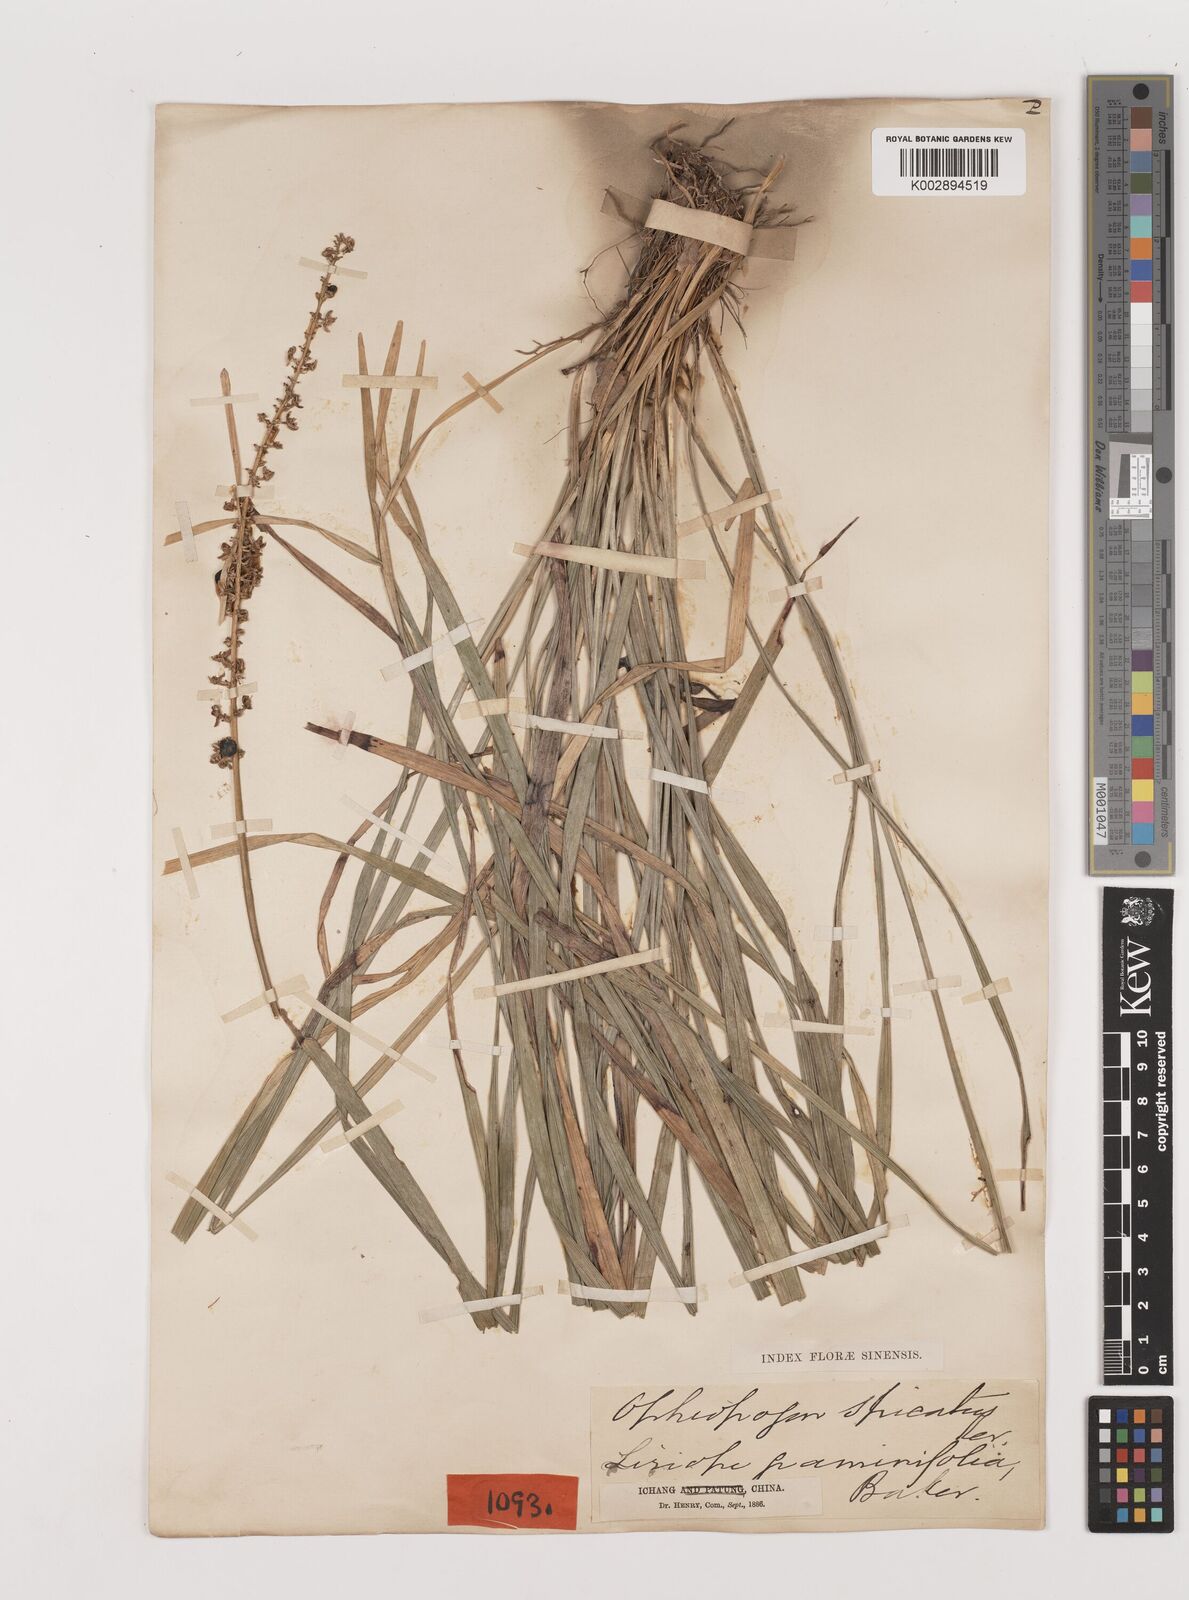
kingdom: Plantae
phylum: Tracheophyta
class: Liliopsida
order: Asparagales
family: Asparagaceae
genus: Liriope
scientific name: Liriope spicata
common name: Creeping liriope
